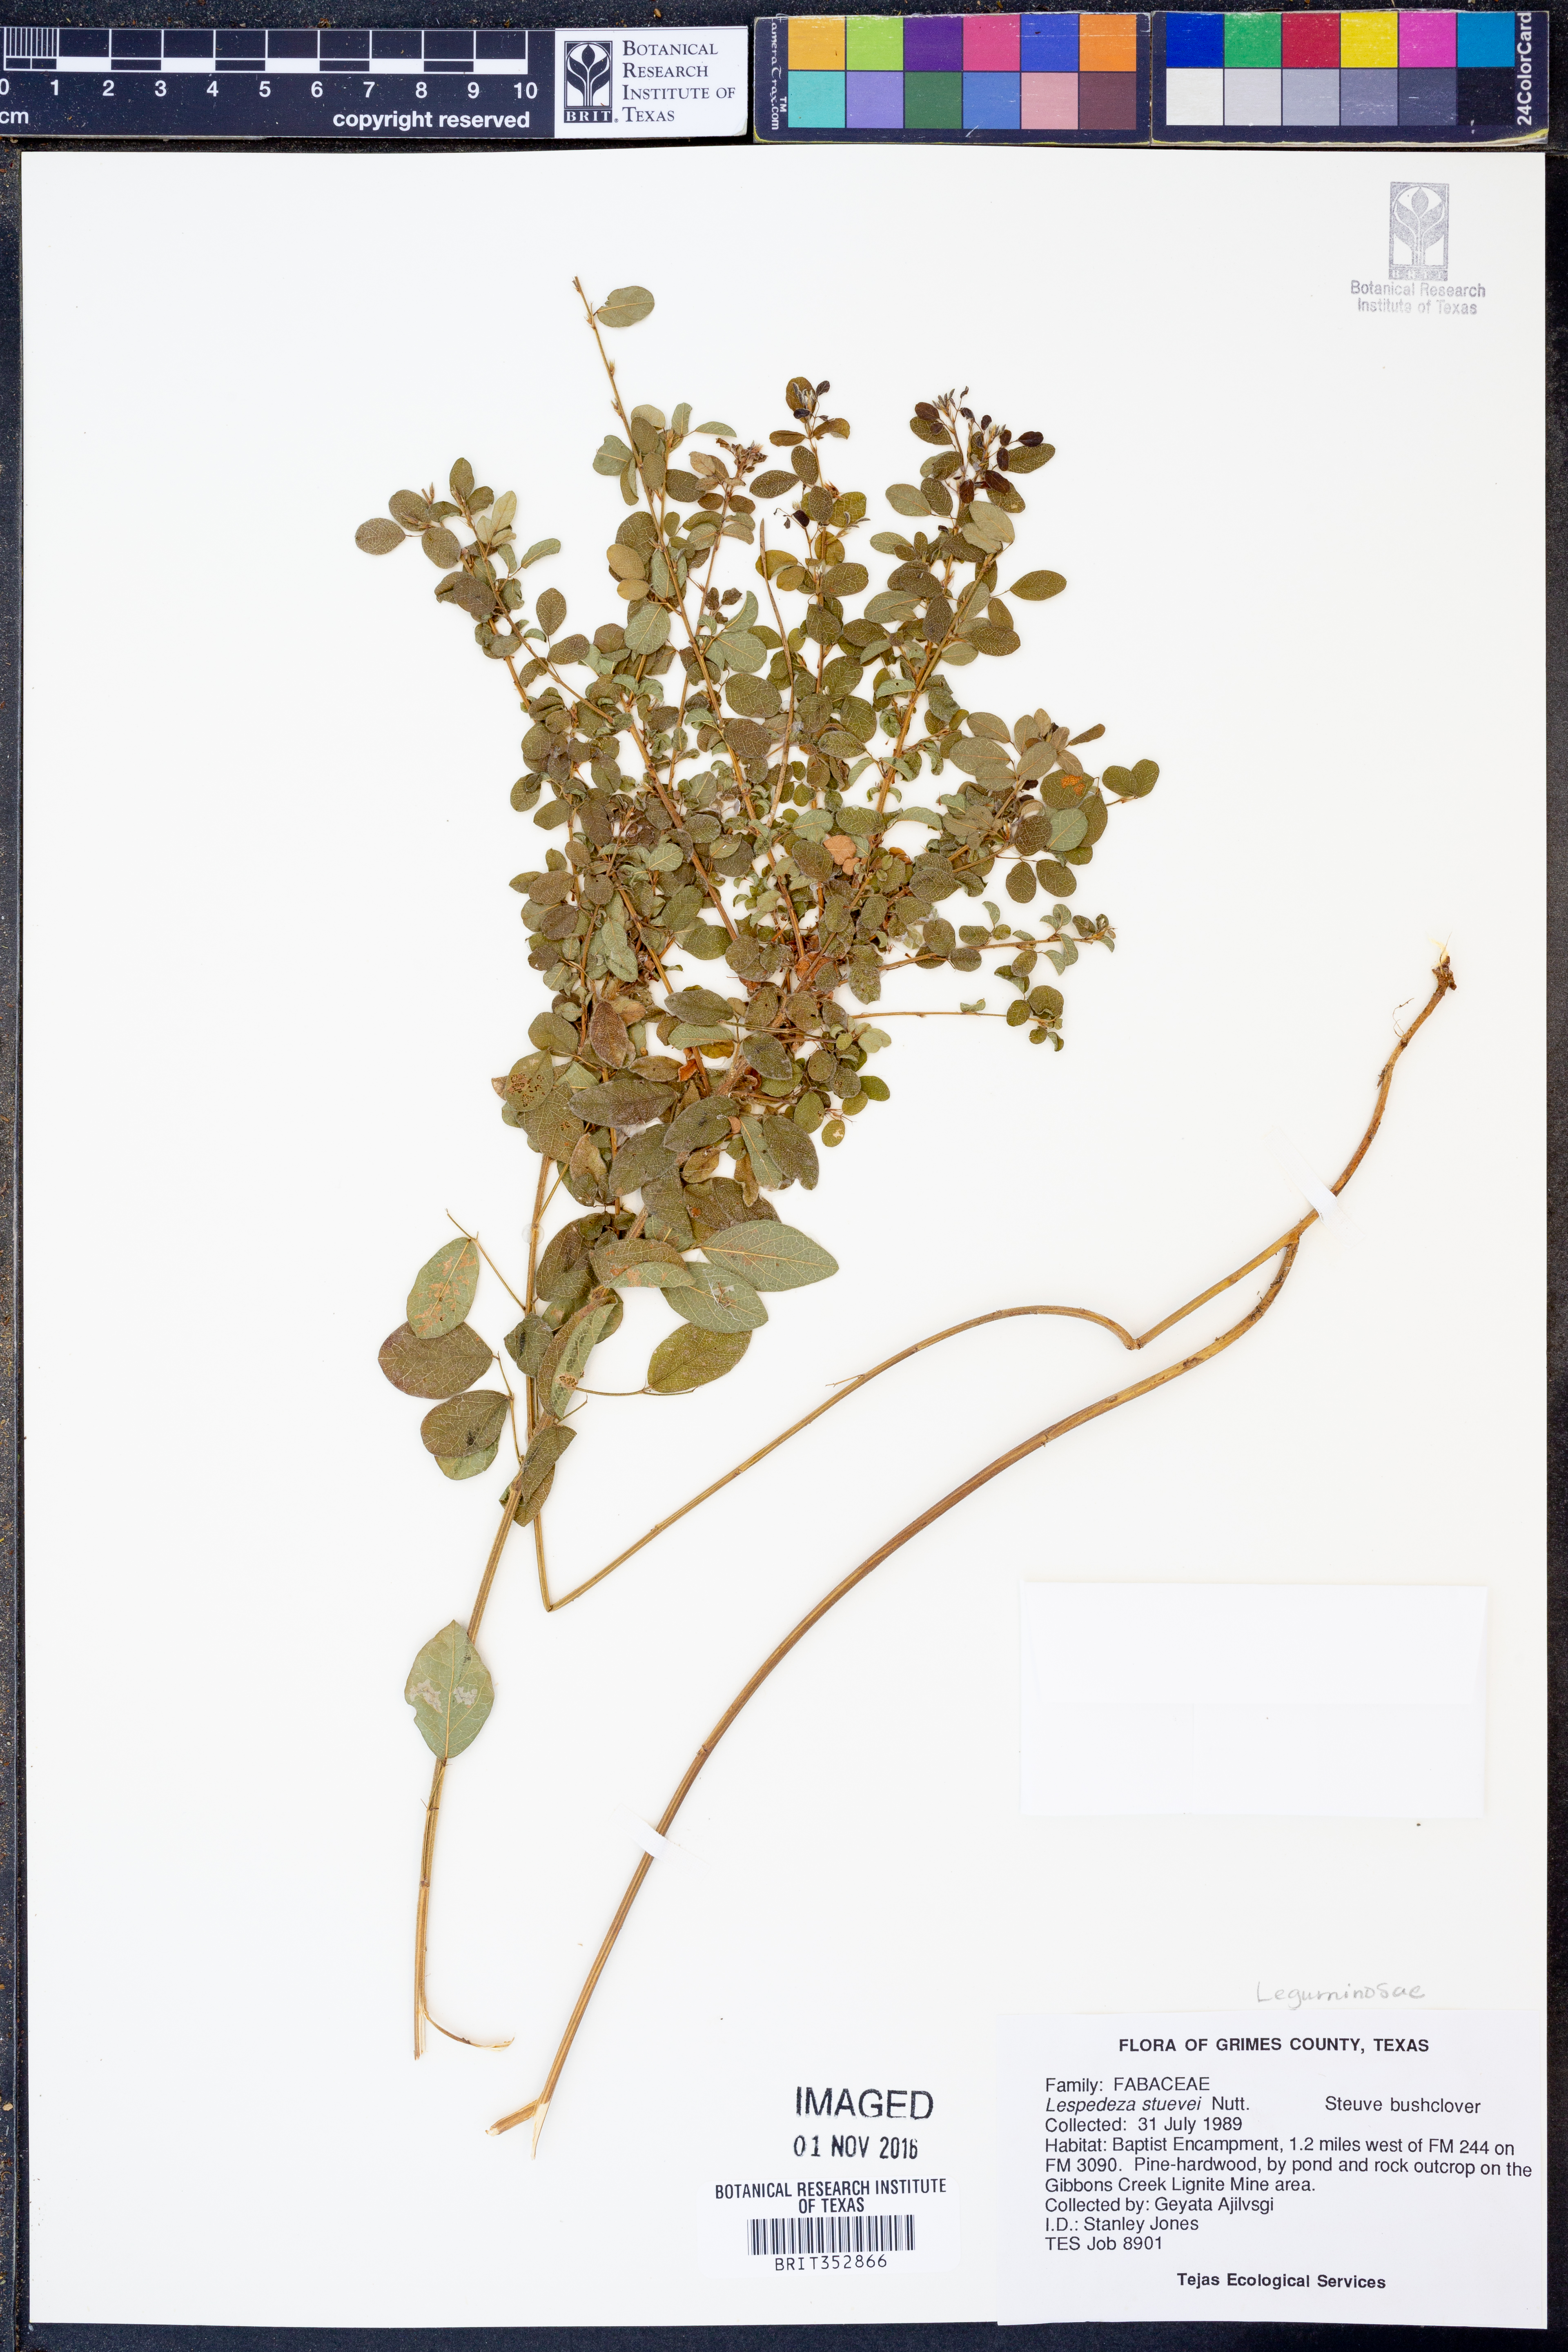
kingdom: Plantae
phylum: Tracheophyta
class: Magnoliopsida
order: Fabales
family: Fabaceae
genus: Lespedeza
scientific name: Lespedeza stuevei
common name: Tall bush-clover
